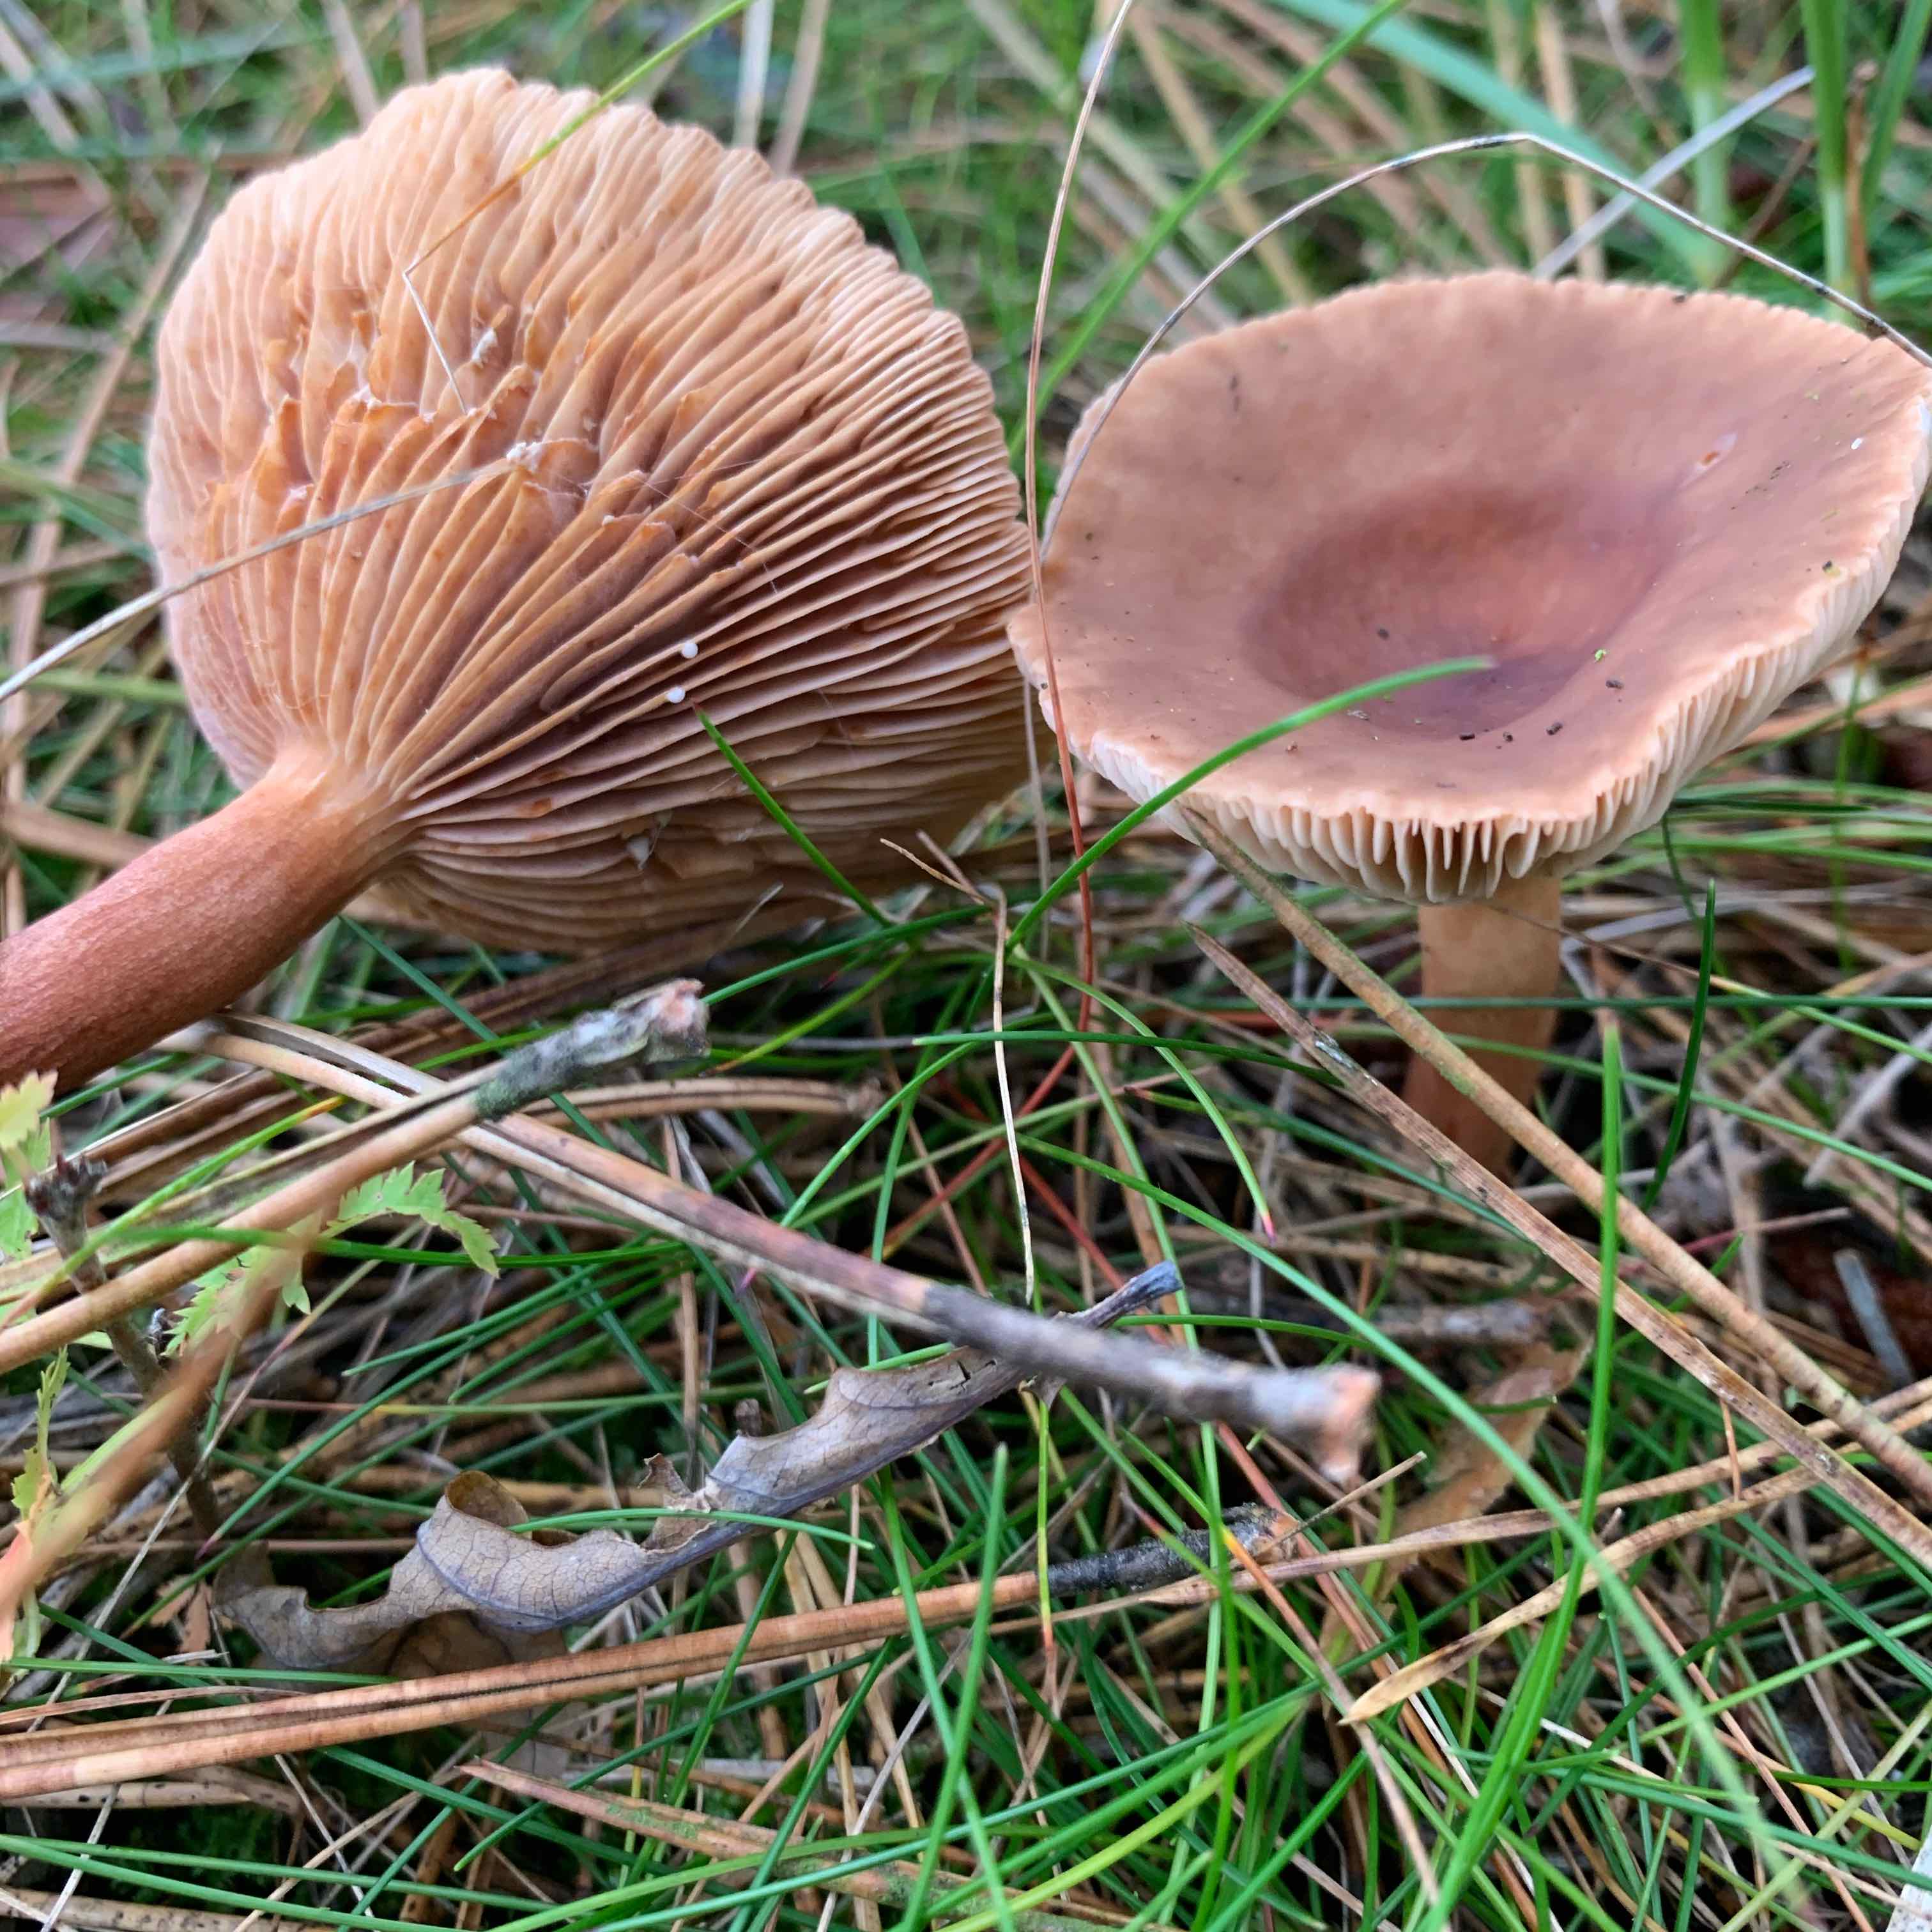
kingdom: Fungi
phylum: Basidiomycota
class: Agaricomycetes
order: Russulales
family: Russulaceae
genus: Lactarius
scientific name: Lactarius hepaticus
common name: leverbrun mælkehat
